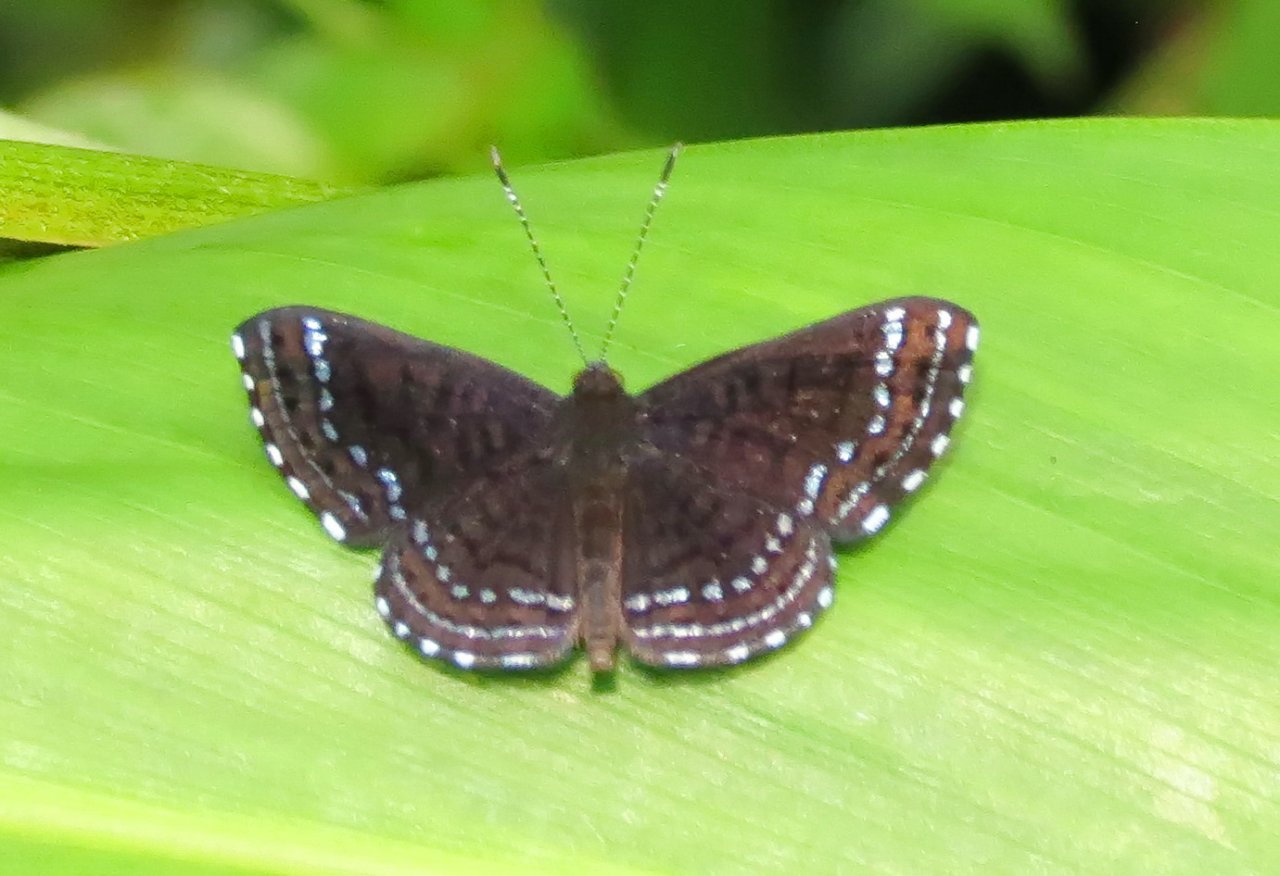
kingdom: Animalia
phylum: Arthropoda
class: Insecta
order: Lepidoptera
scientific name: Lepidoptera
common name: Butterflies
